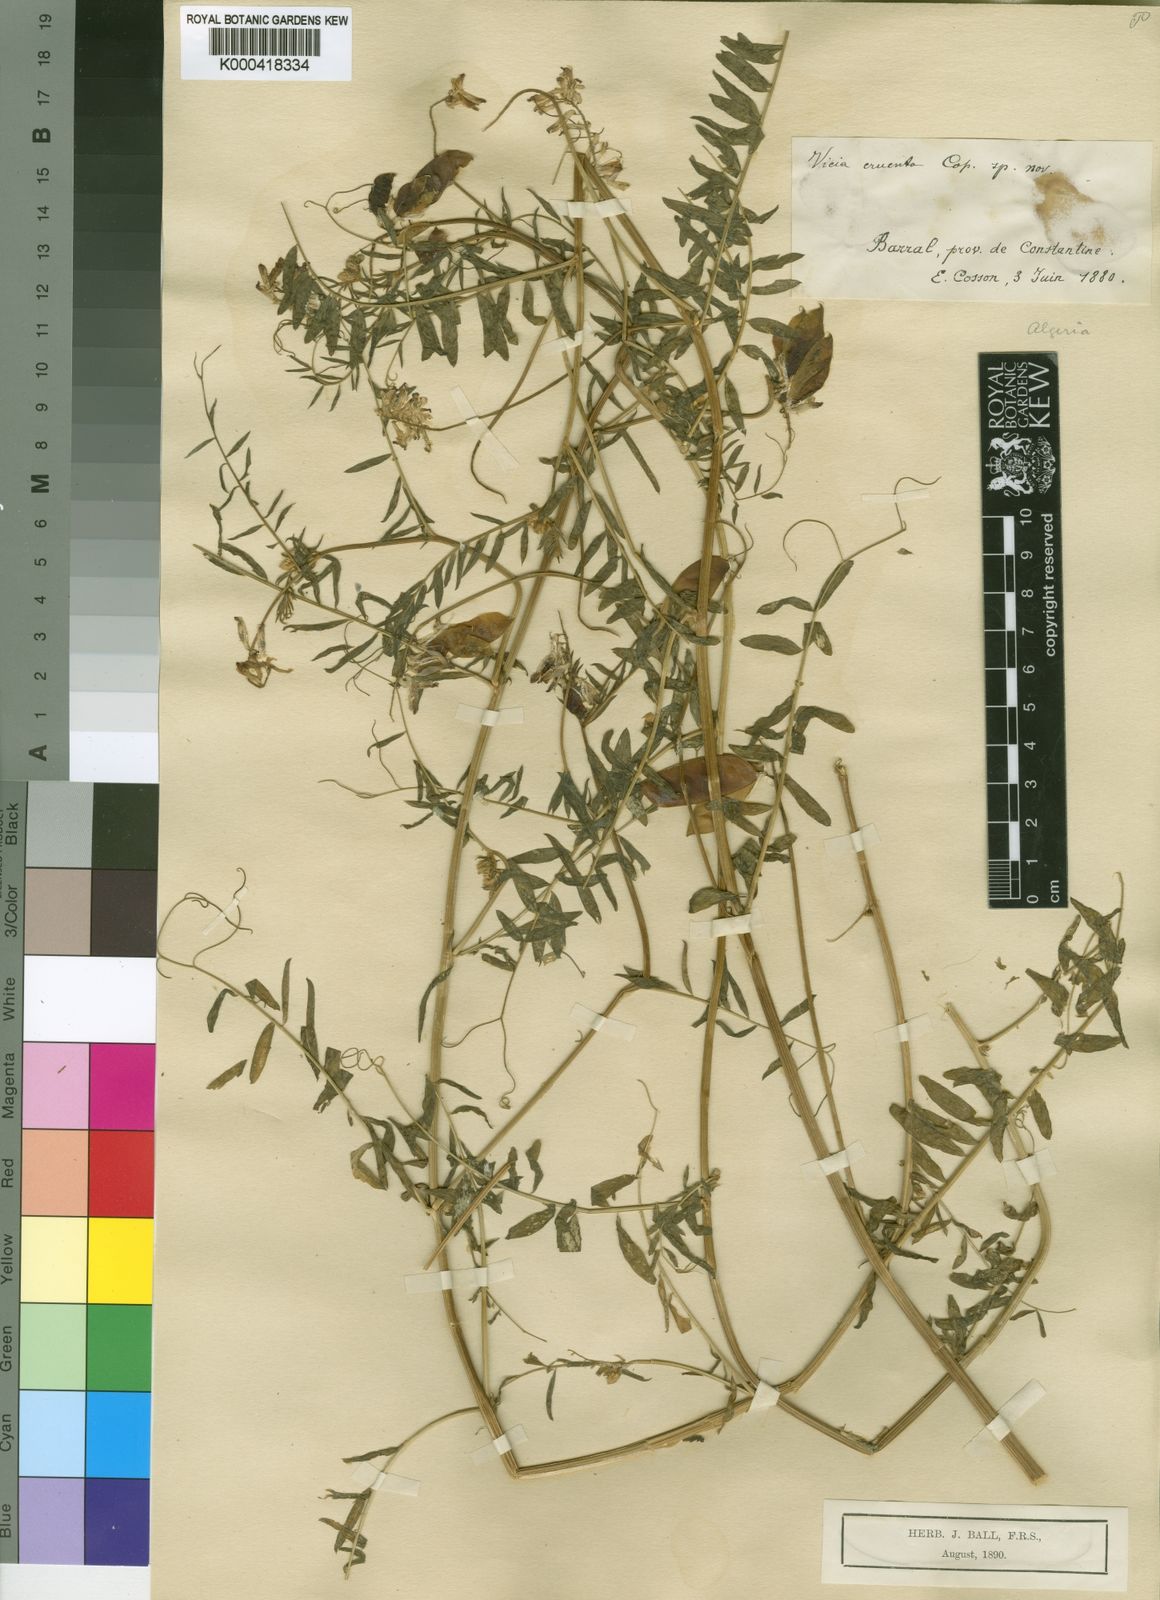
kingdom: Plantae
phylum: Tracheophyta
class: Magnoliopsida
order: Fabales
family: Fabaceae
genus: Vicia
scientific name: Vicia fulgens
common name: Scarlet vetch
